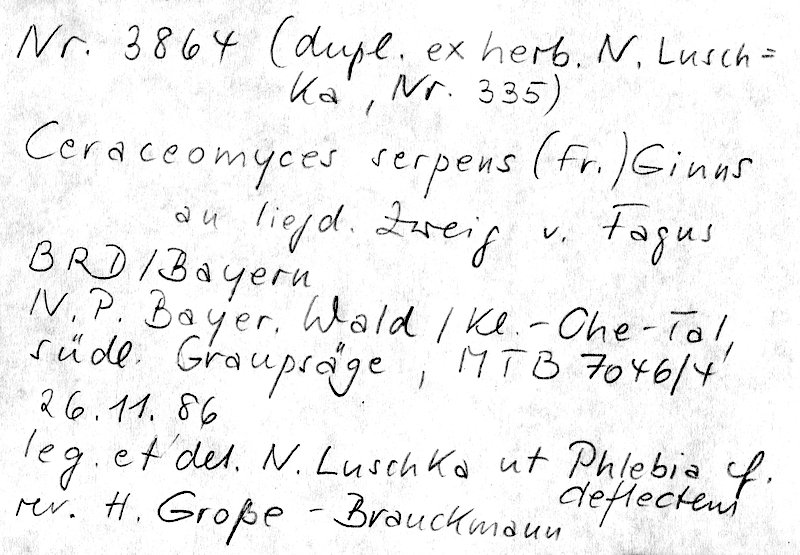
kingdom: Plantae
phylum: Tracheophyta
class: Magnoliopsida
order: Fagales
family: Fagaceae
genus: Fagus
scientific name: Fagus sylvatica
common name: Beech
